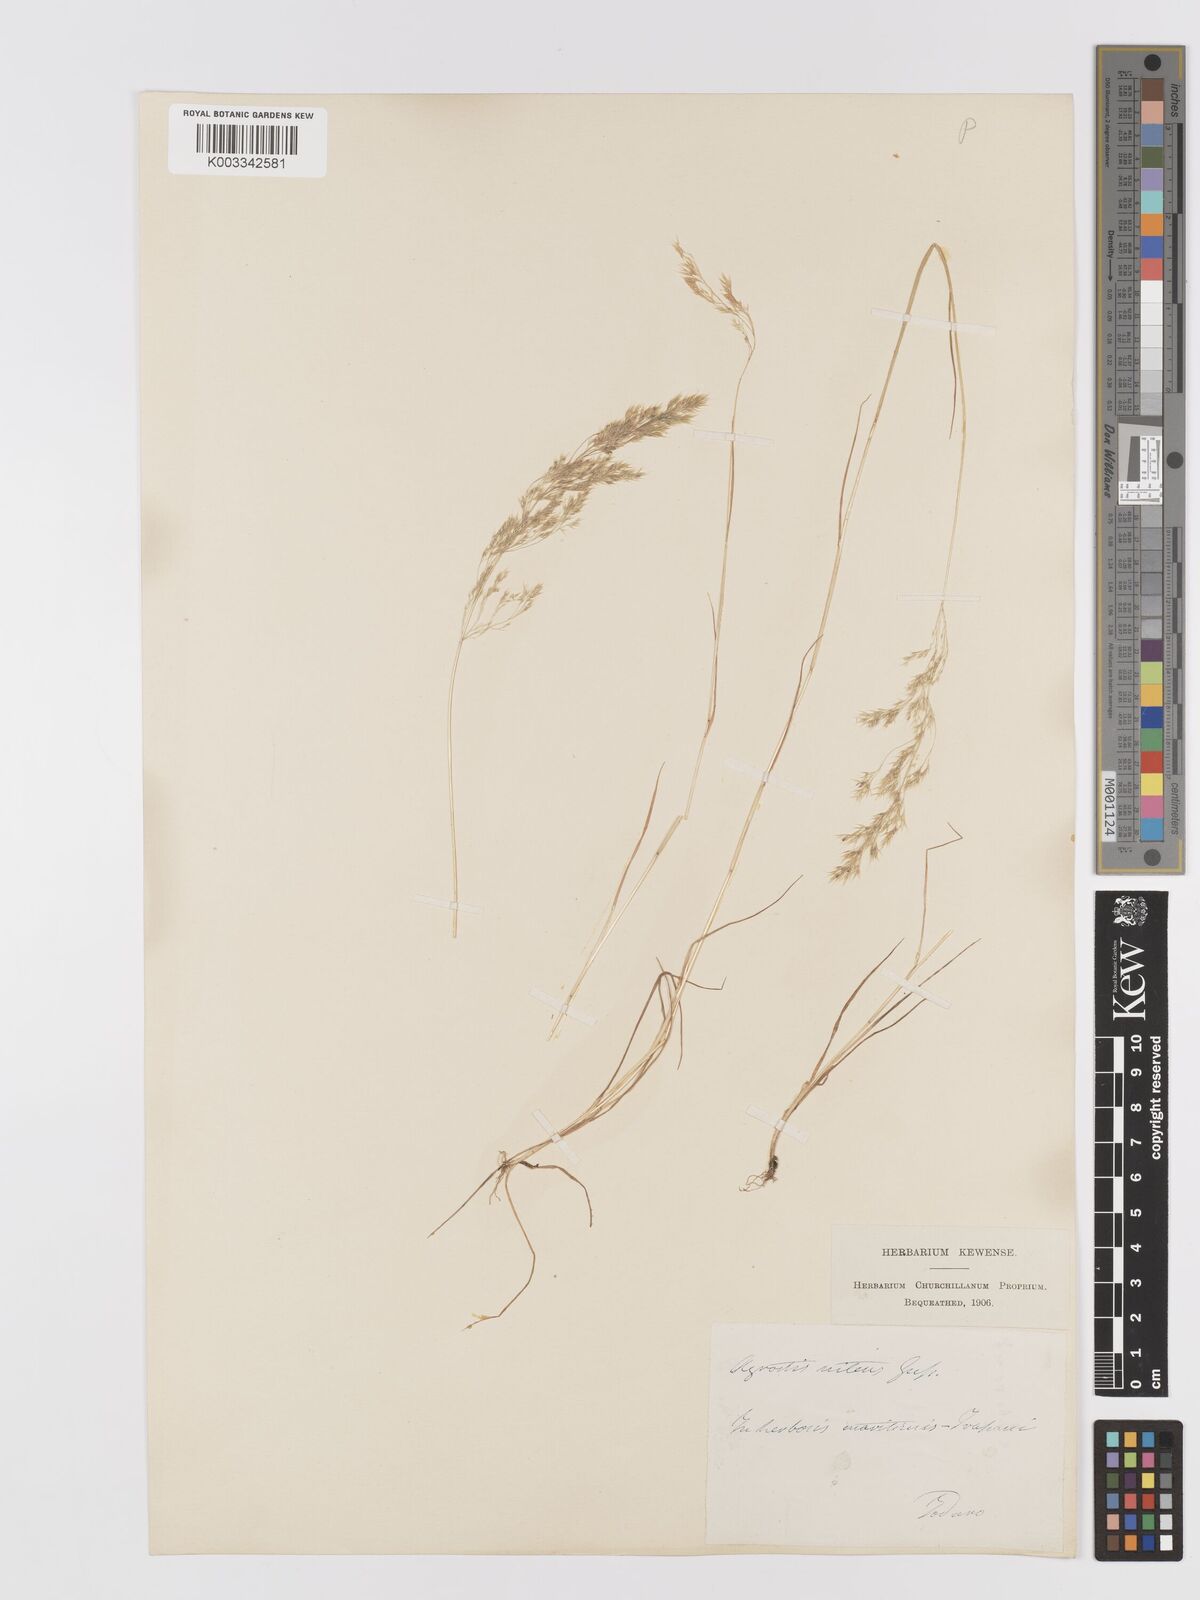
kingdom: Plantae
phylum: Tracheophyta
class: Liliopsida
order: Poales
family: Poaceae
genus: Agrostis
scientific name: Agrostis
